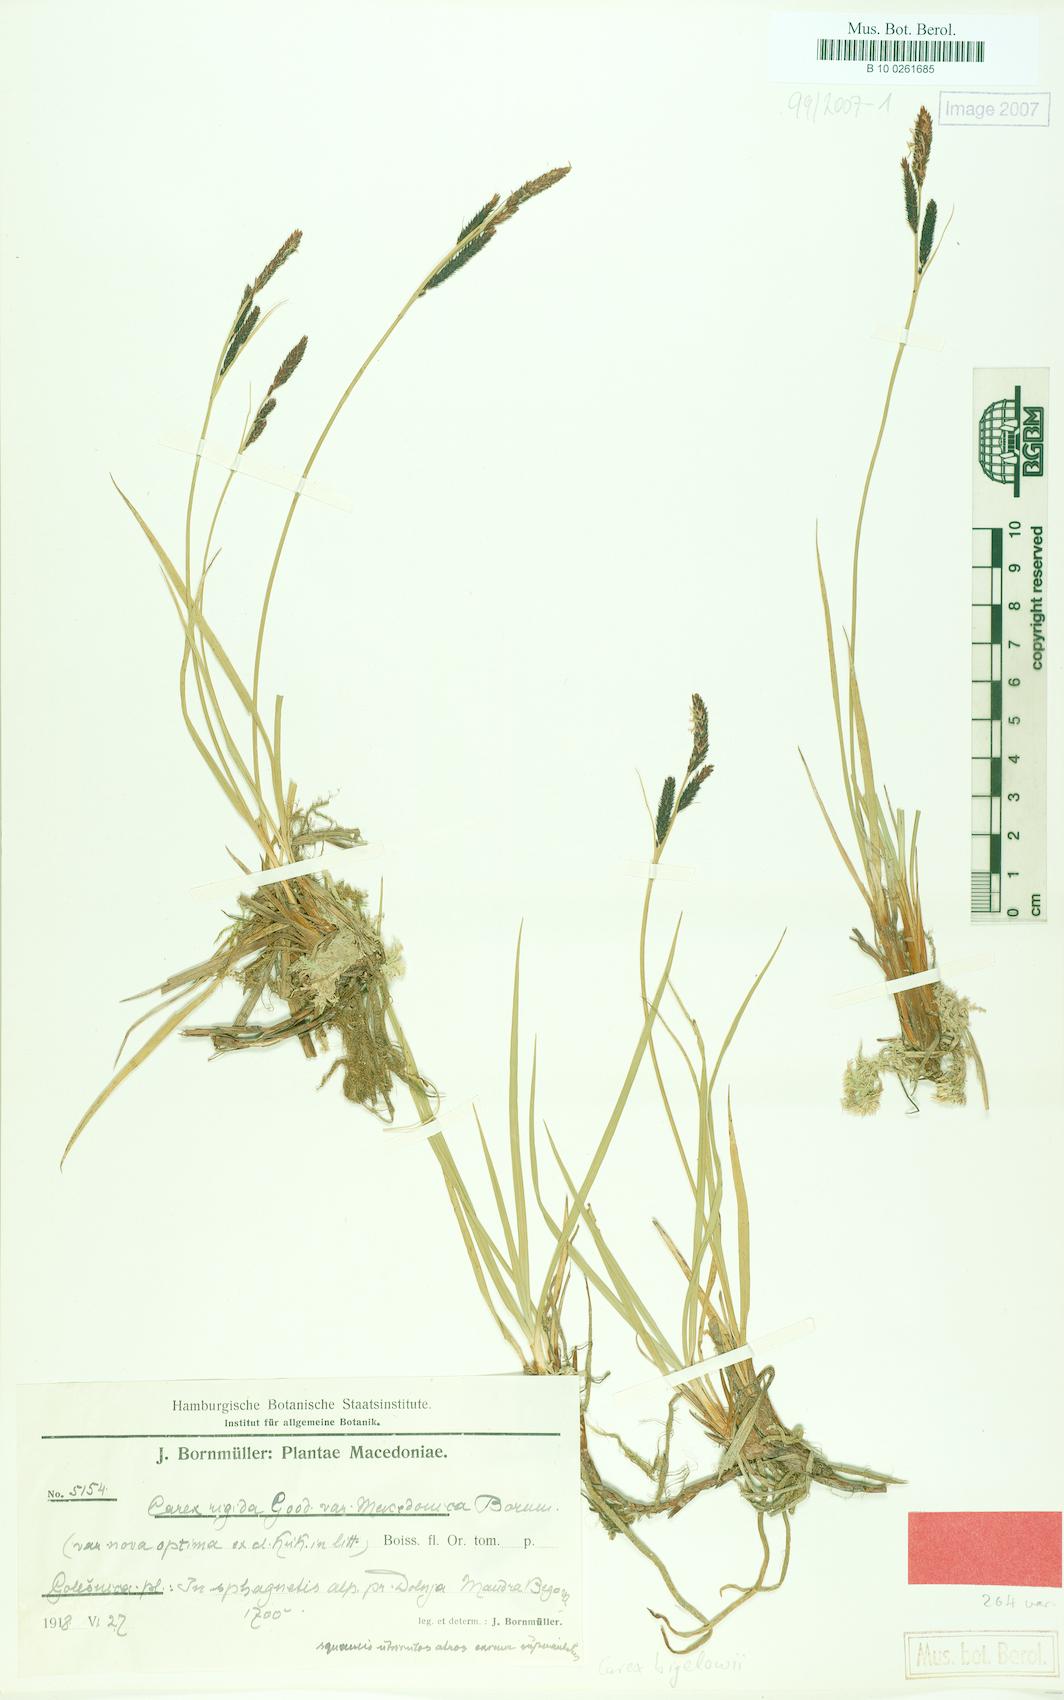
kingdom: Plantae
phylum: Tracheophyta
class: Liliopsida
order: Poales
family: Cyperaceae
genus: Carex
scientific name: Carex bigelowii
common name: Stiff sedge
